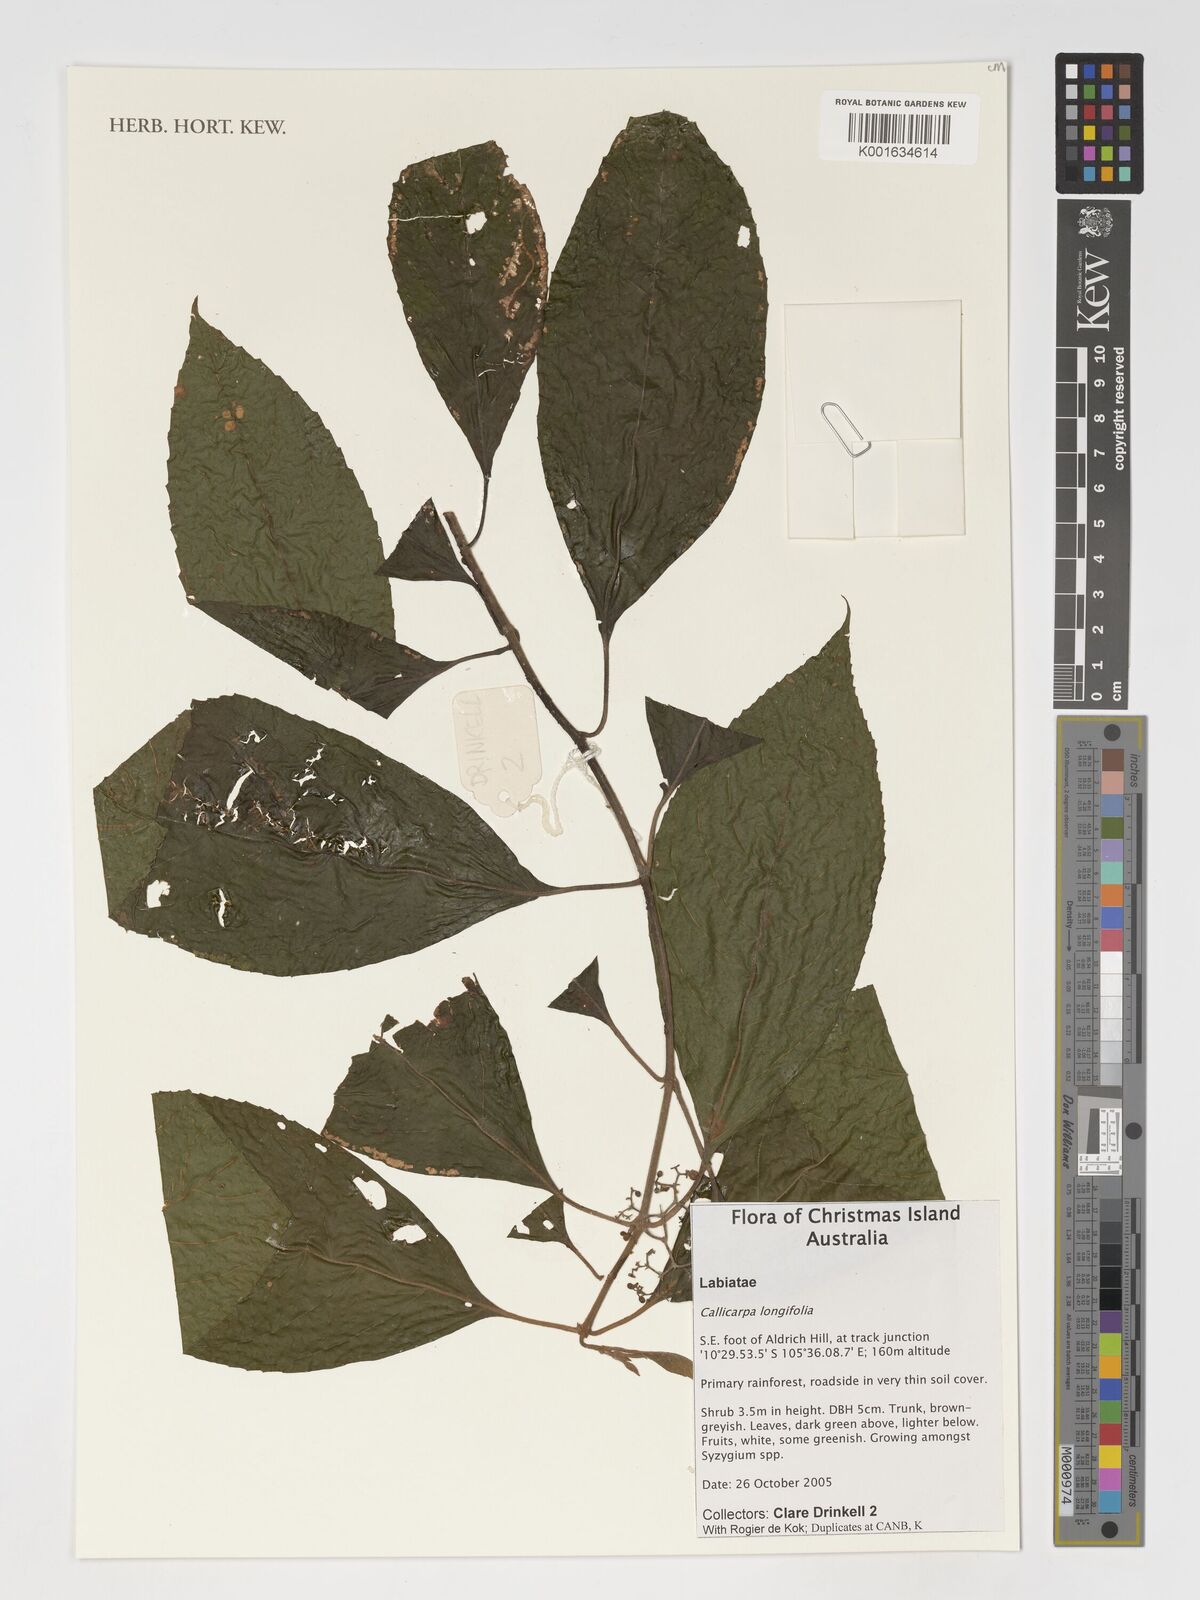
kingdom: Plantae
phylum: Tracheophyta
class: Magnoliopsida
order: Lamiales
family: Lamiaceae
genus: Callicarpa
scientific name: Callicarpa longifolia
